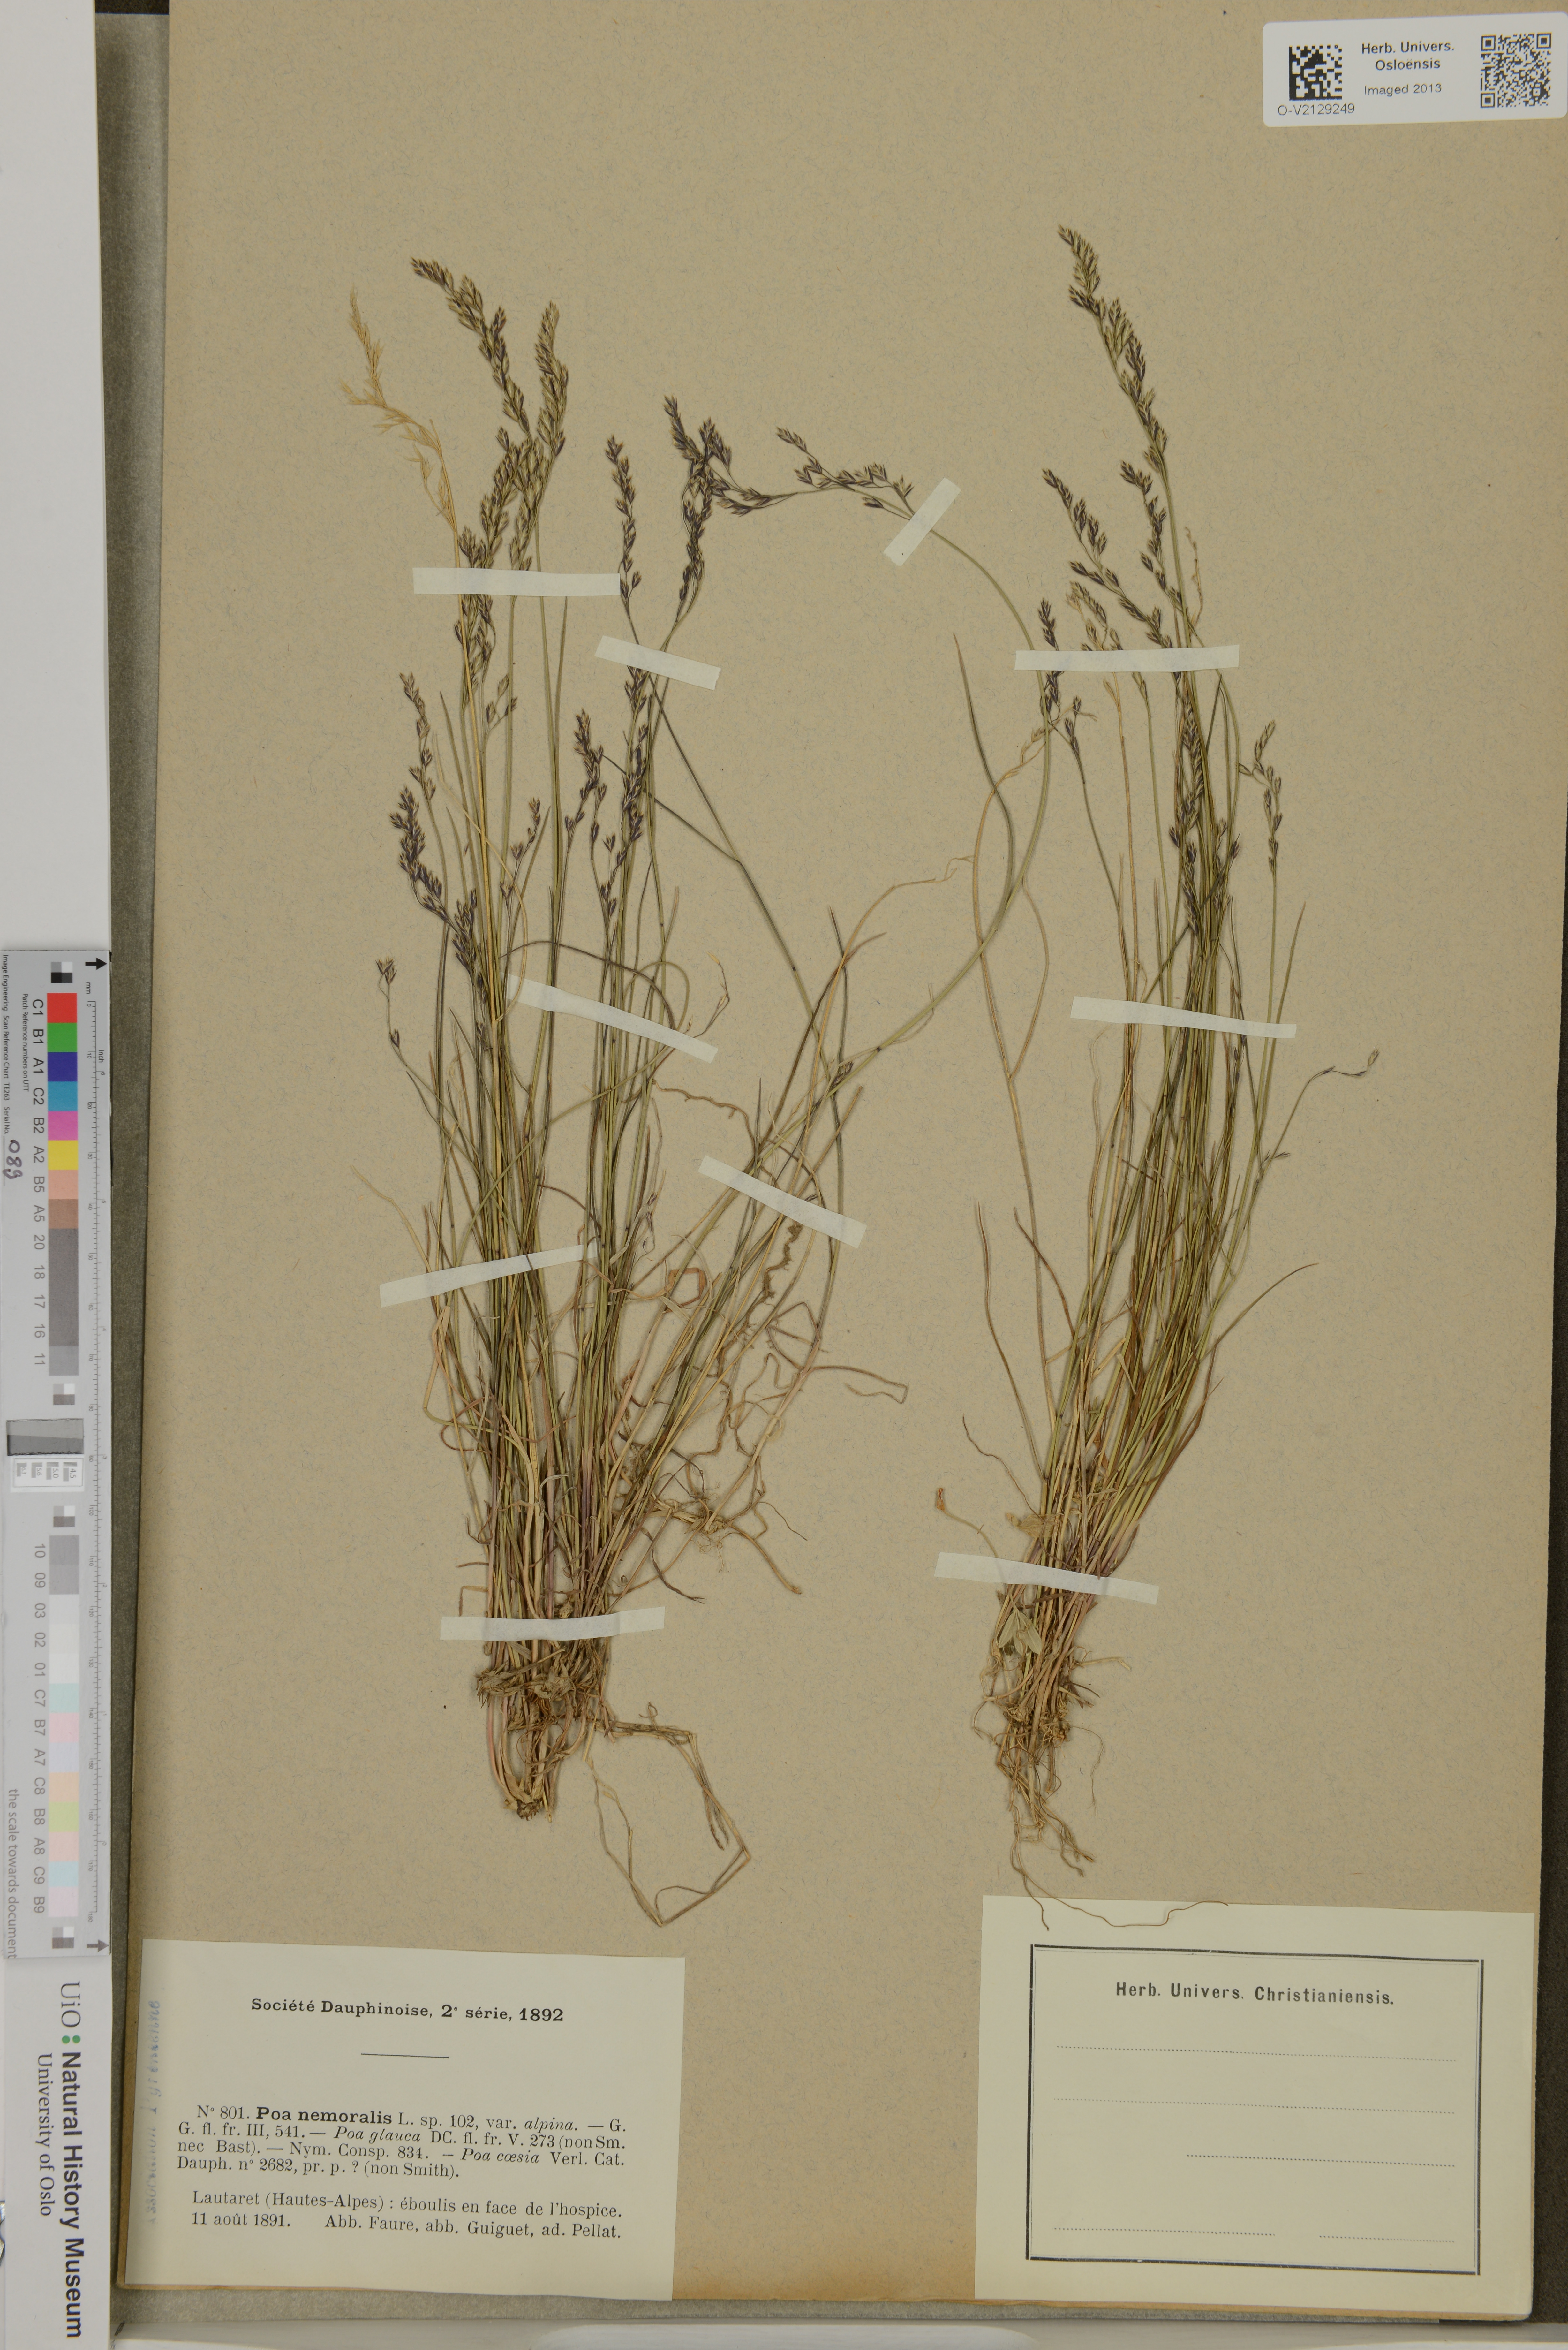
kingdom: Plantae
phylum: Tracheophyta
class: Liliopsida
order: Poales
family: Poaceae
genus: Poa
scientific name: Poa nemoralis
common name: Wood bluegrass
